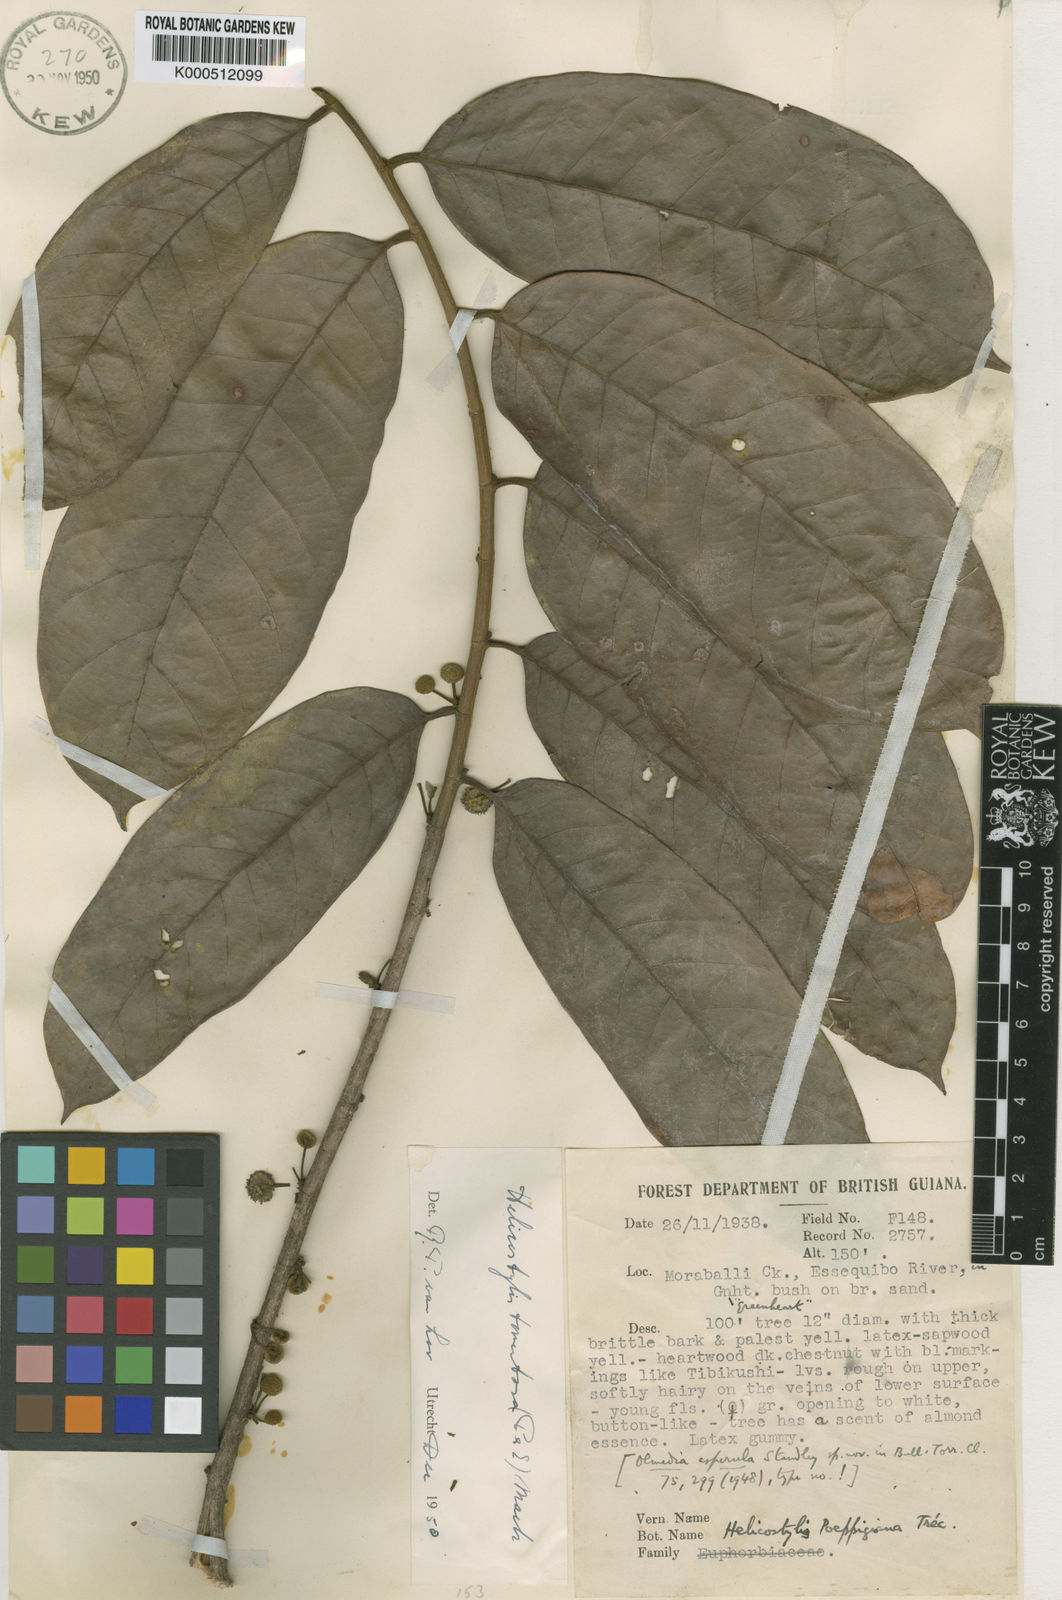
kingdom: Plantae
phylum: Tracheophyta
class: Magnoliopsida
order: Rosales
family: Moraceae
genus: Helicostylis
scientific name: Helicostylis
